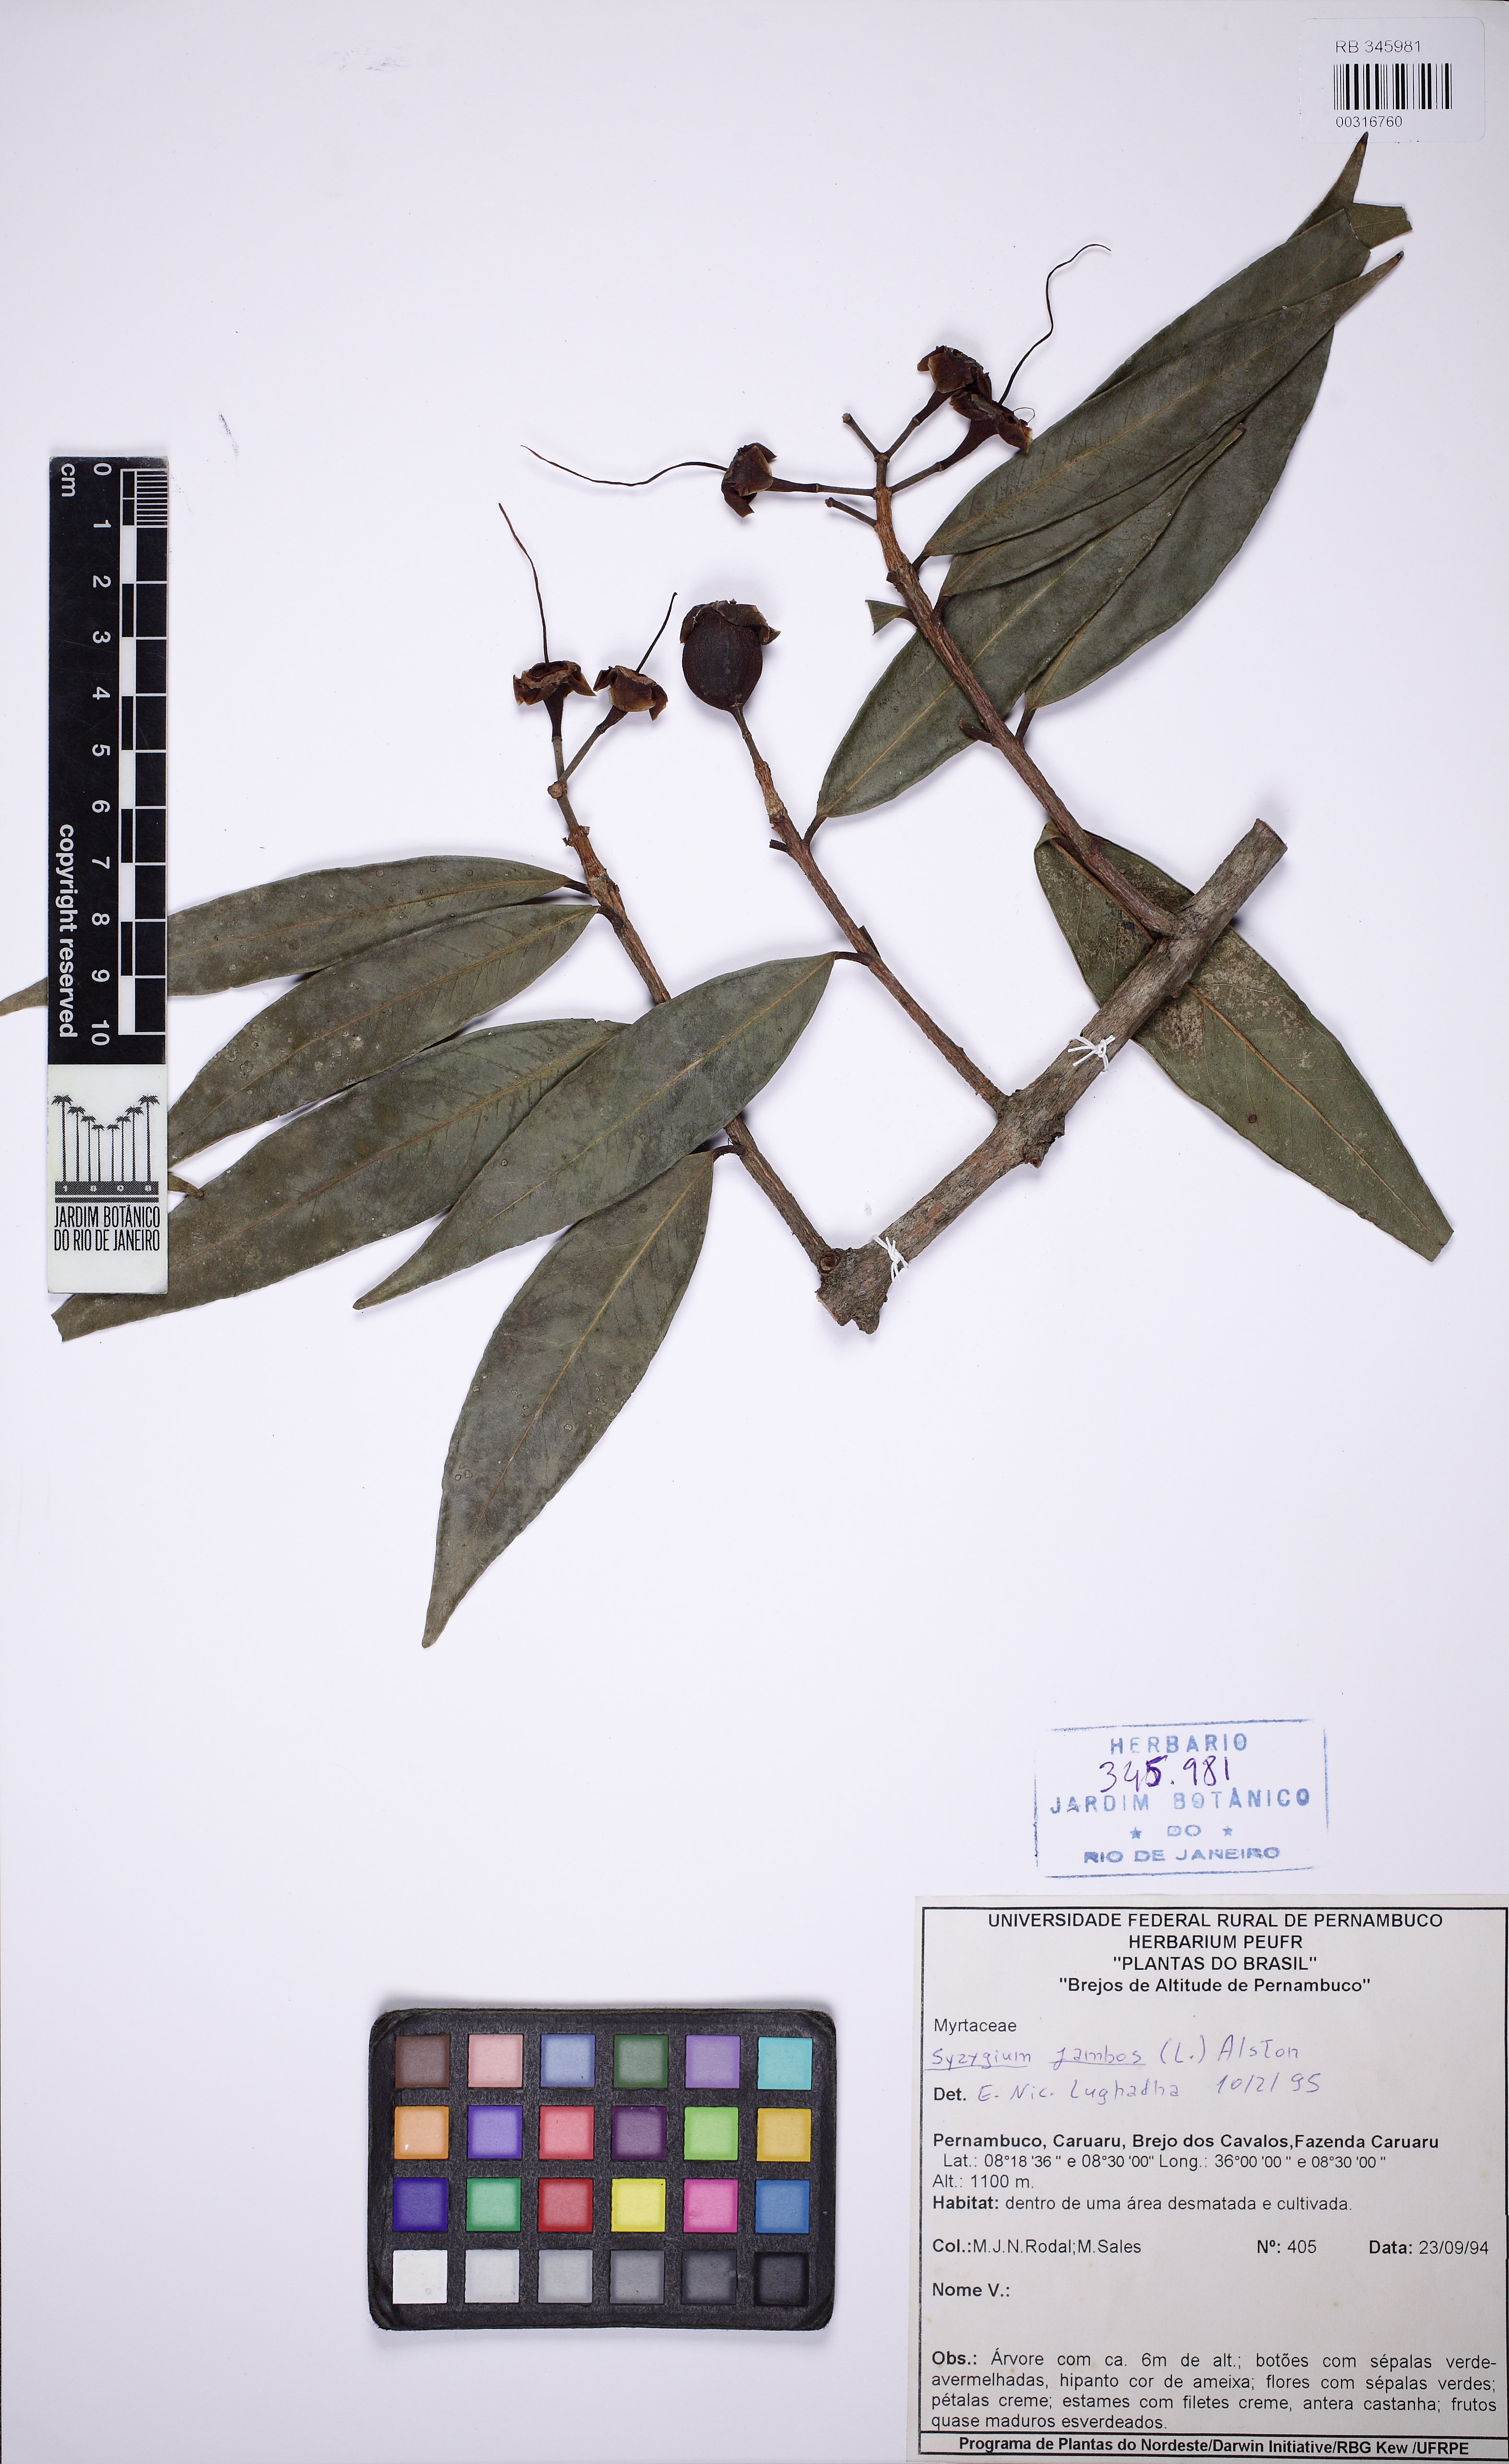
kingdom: Plantae
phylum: Tracheophyta
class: Magnoliopsida
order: Myrtales
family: Myrtaceae
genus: Syzygium
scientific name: Syzygium jambos
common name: Malabar plum
